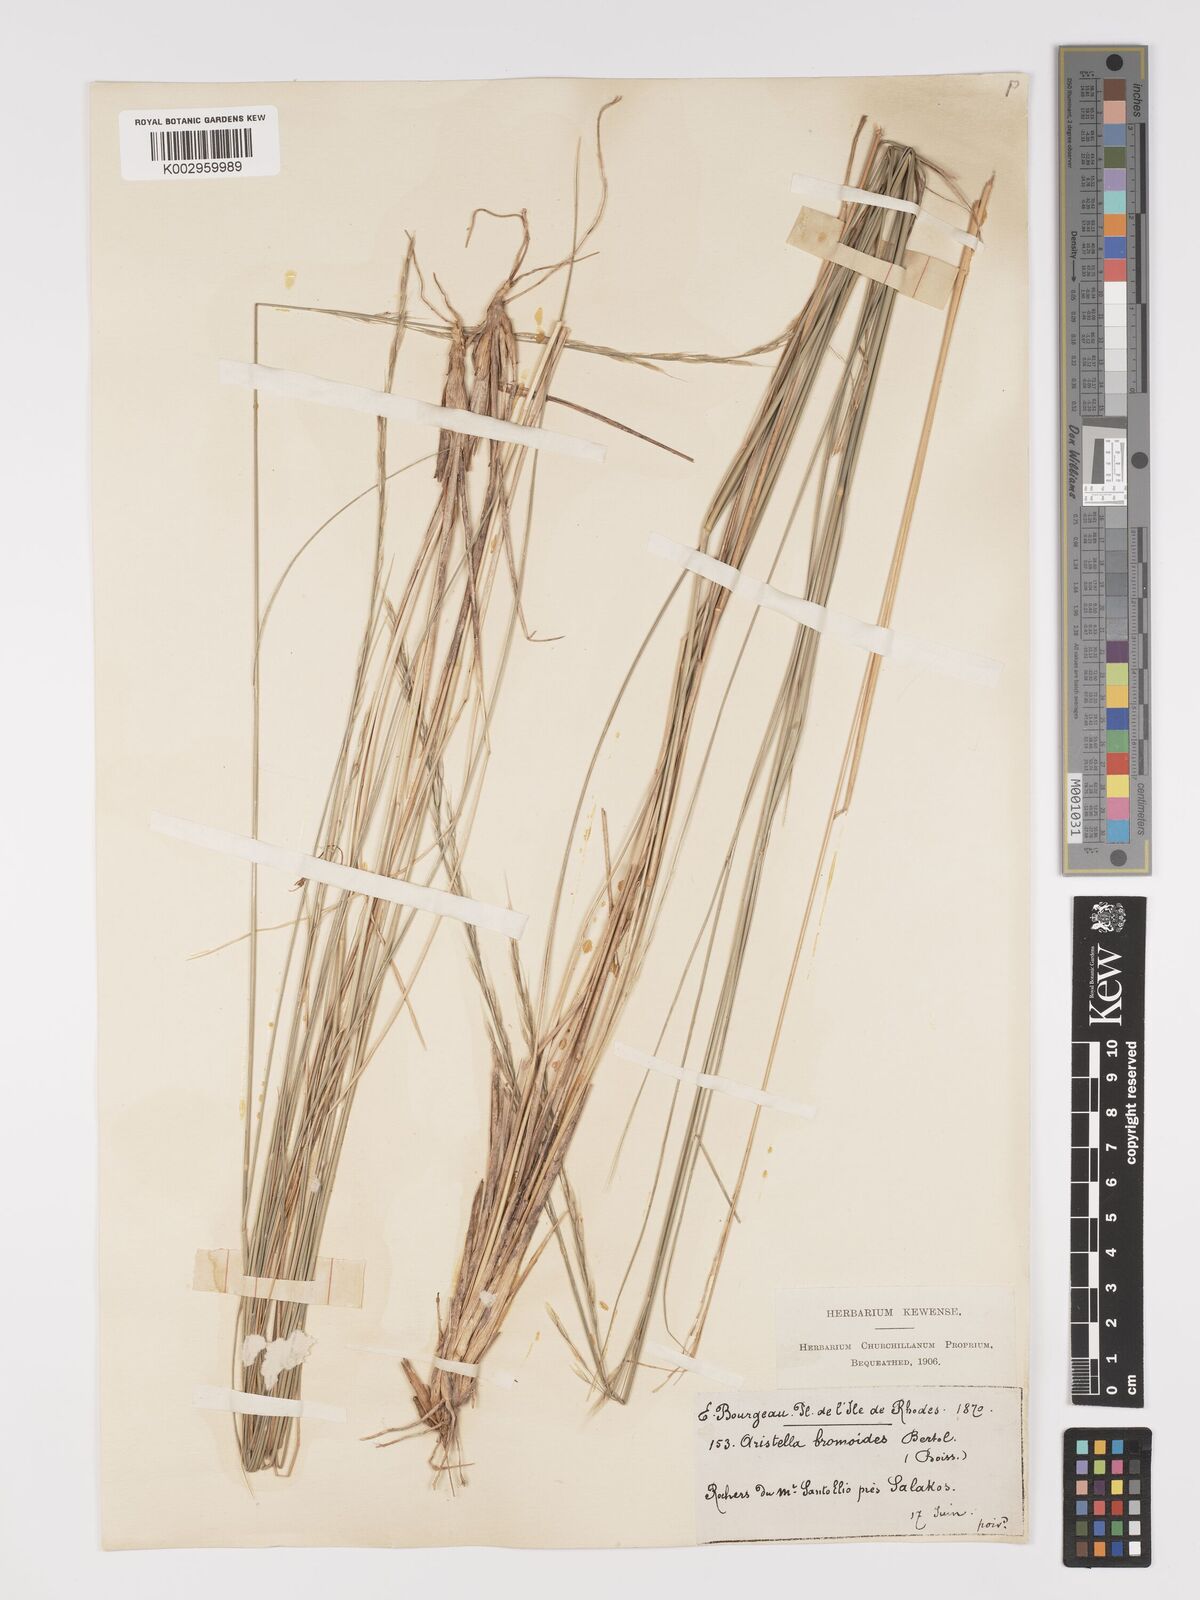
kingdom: Plantae
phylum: Tracheophyta
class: Liliopsida
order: Poales
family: Poaceae
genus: Achnatherum
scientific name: Achnatherum bromoides
